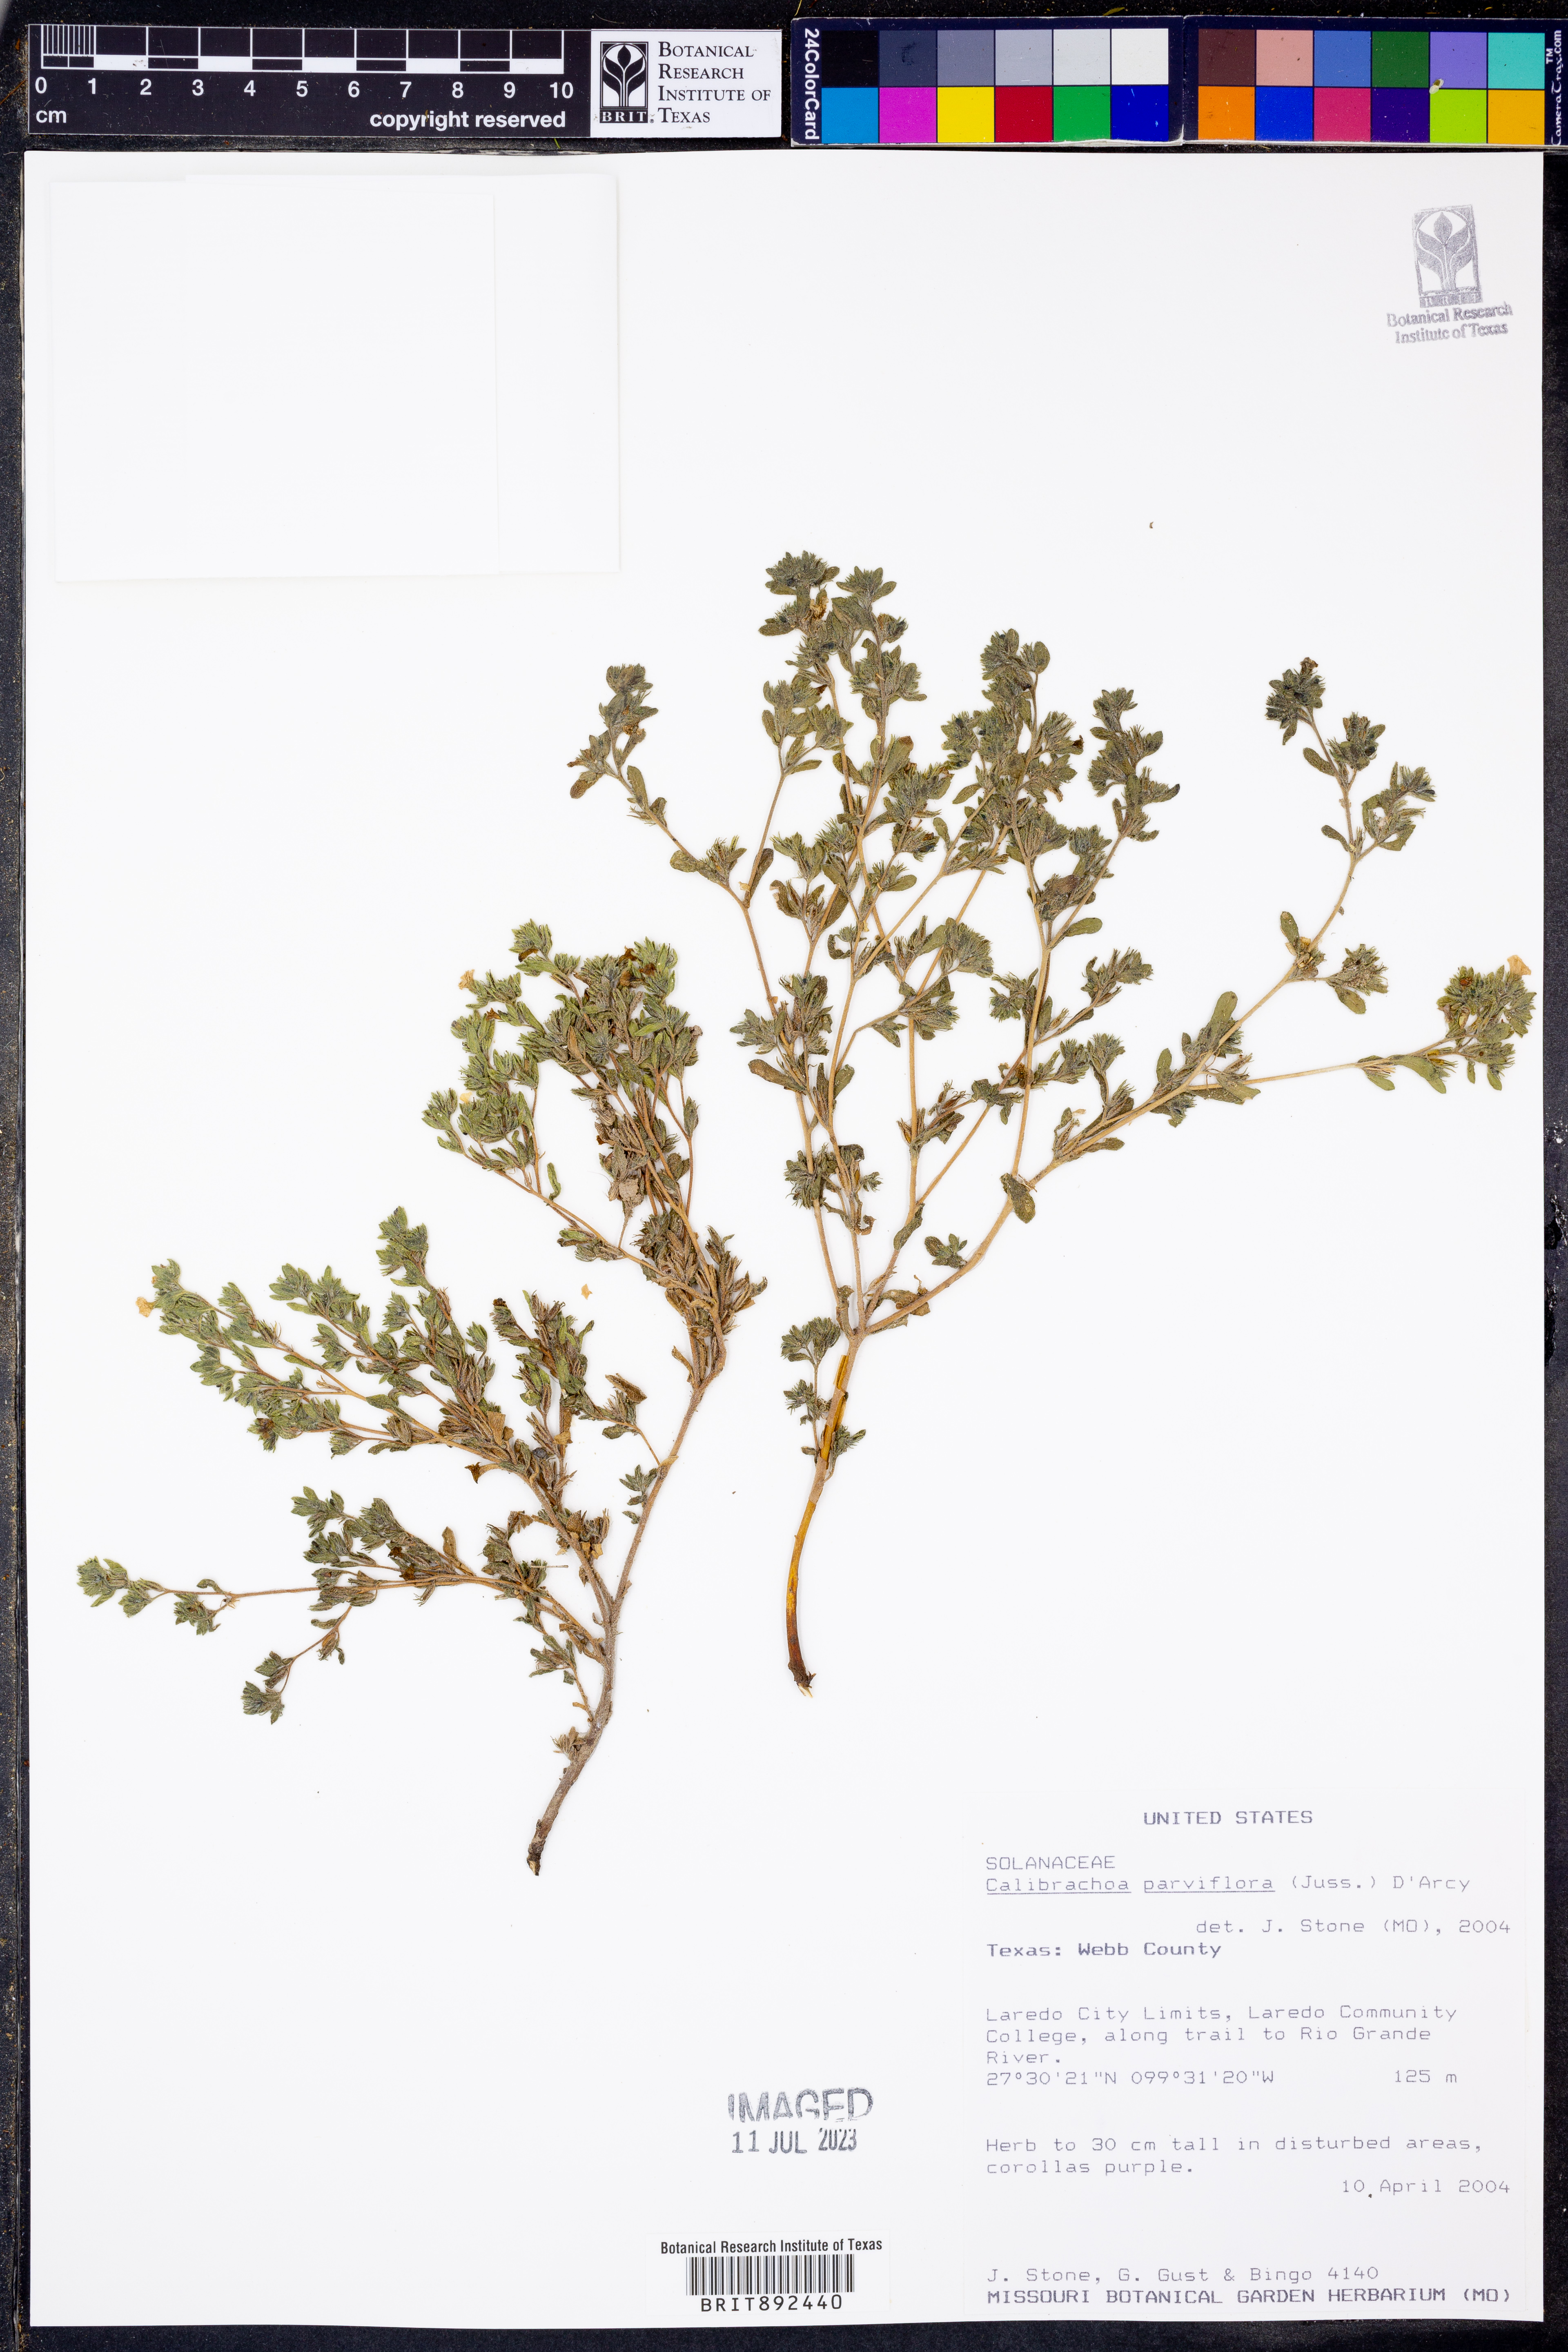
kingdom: Plantae
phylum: Tracheophyta
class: Magnoliopsida
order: Solanales
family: Solanaceae
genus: Calibrachoa
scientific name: Calibrachoa parviflora
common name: Seaside petunia
